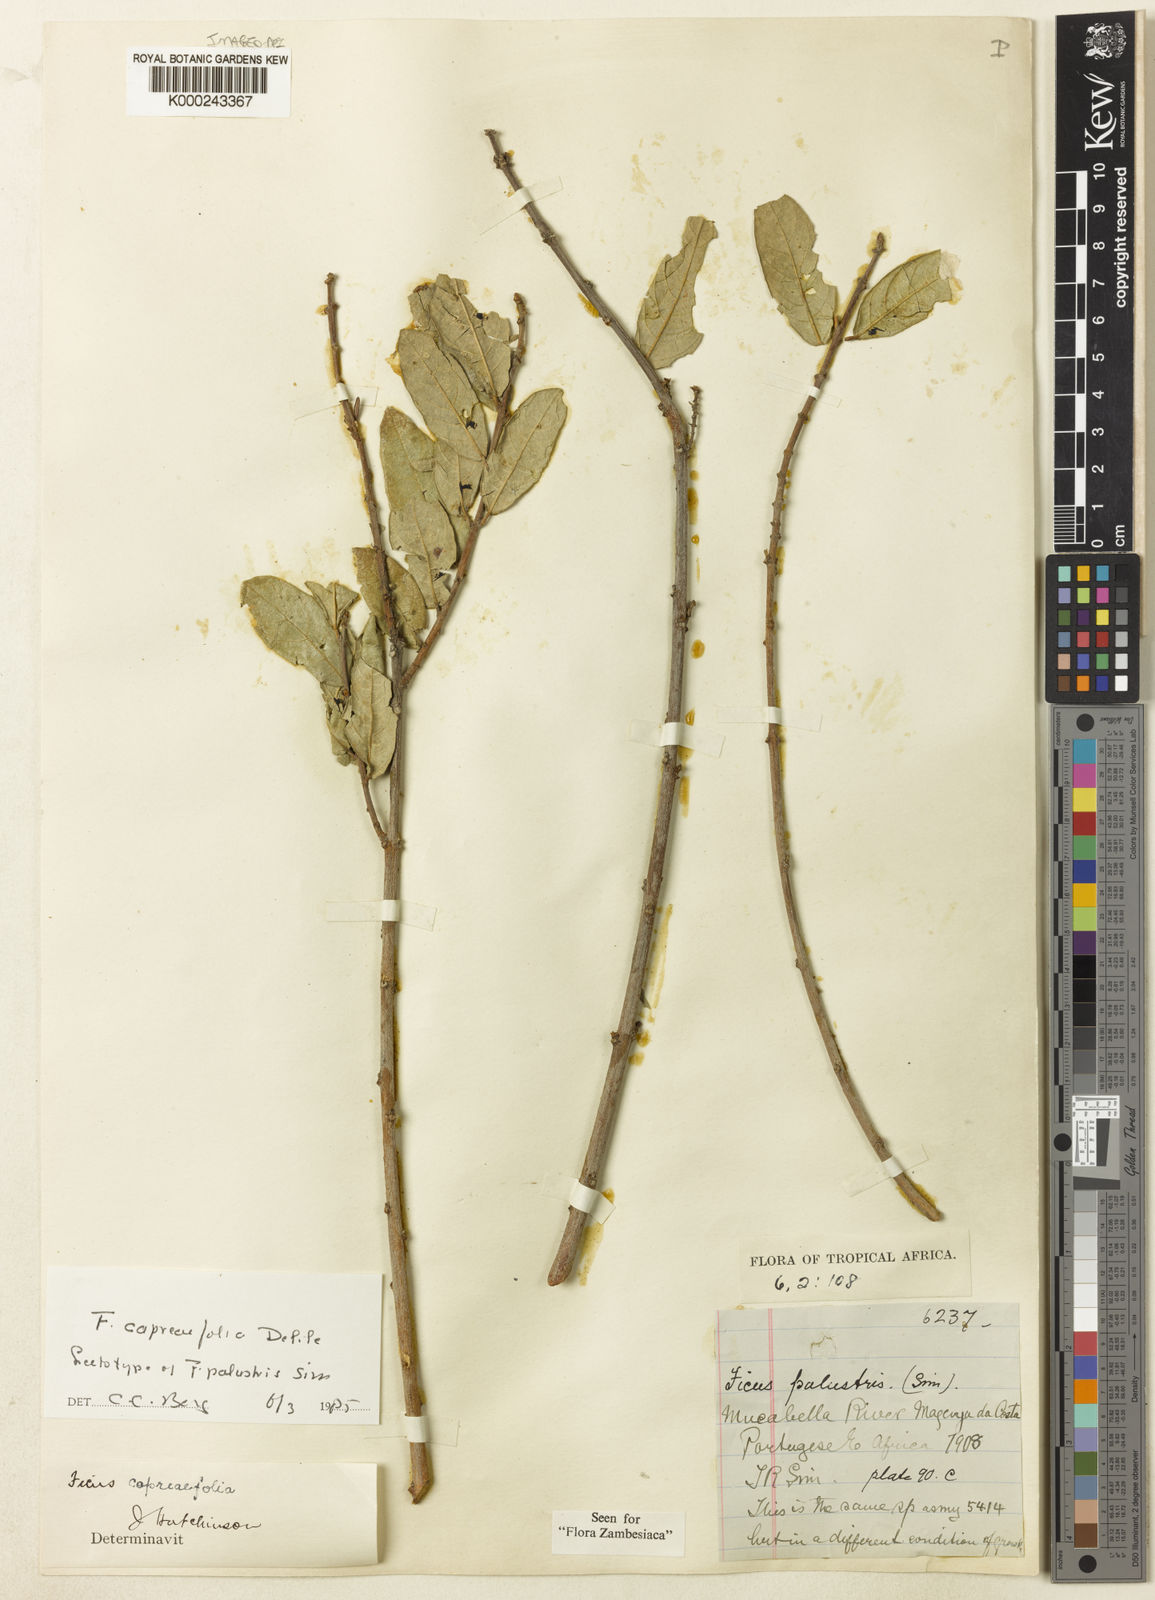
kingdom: Plantae
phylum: Tracheophyta
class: Magnoliopsida
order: Rosales
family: Moraceae
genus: Ficus
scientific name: Ficus capreifolia
